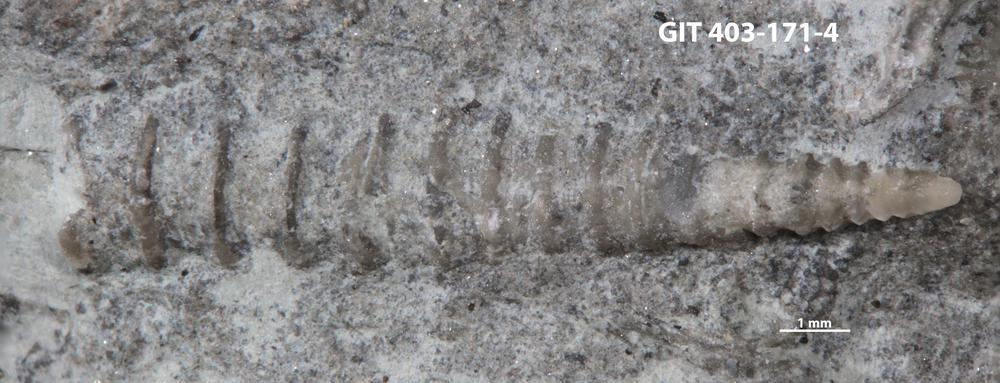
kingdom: Animalia
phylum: Mollusca
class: Cricoconarida
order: Tentaculitida
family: Tentaculitidae
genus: Tentaculites
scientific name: Tentaculites
